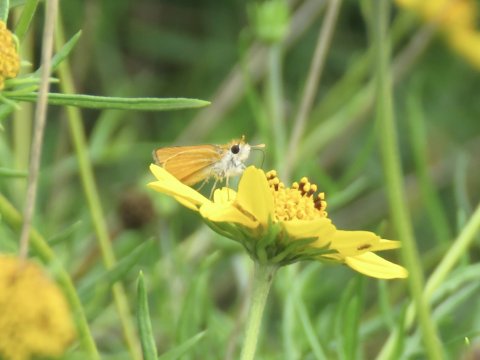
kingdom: Animalia
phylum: Arthropoda
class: Insecta
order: Lepidoptera
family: Hesperiidae
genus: Copaeodes
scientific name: Copaeodes minima
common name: Southern Skipperling
